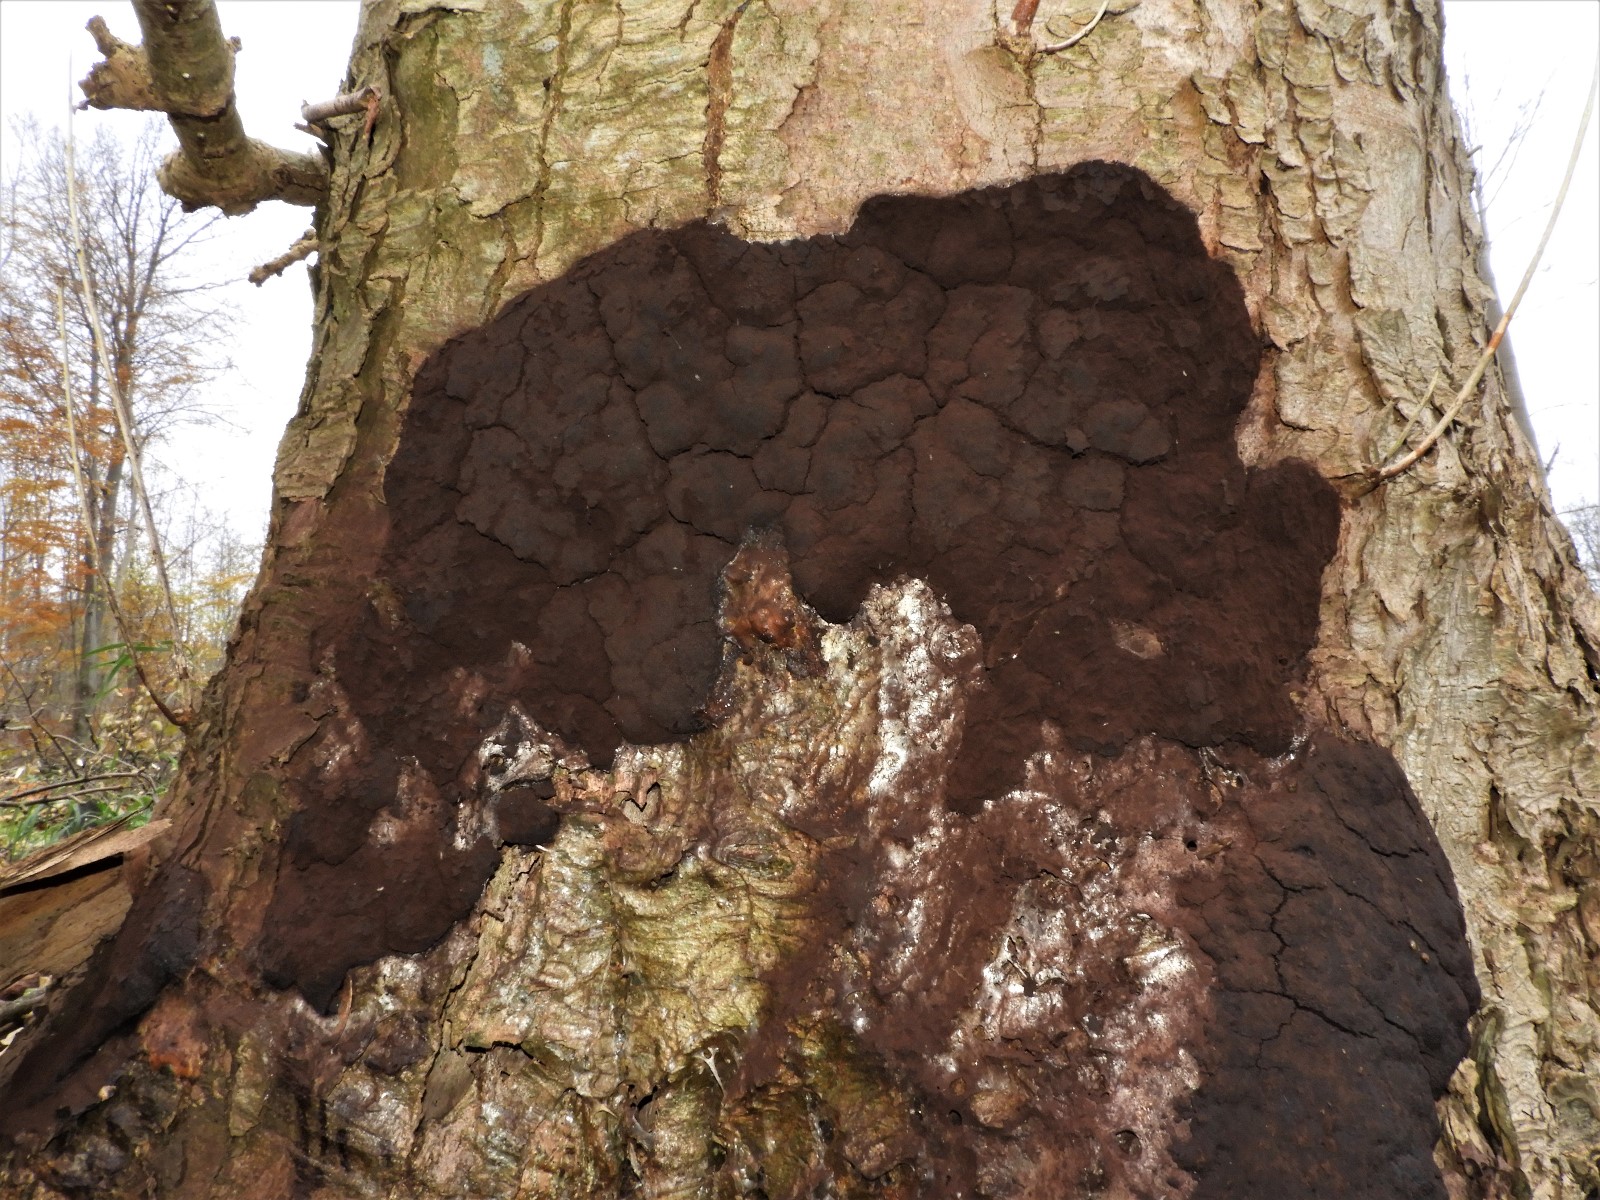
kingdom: Protozoa
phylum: Mycetozoa
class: Myxomycetes
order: Stemonitidales
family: Stemonitidaceae
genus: Brefeldia
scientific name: Brefeldia maxima
